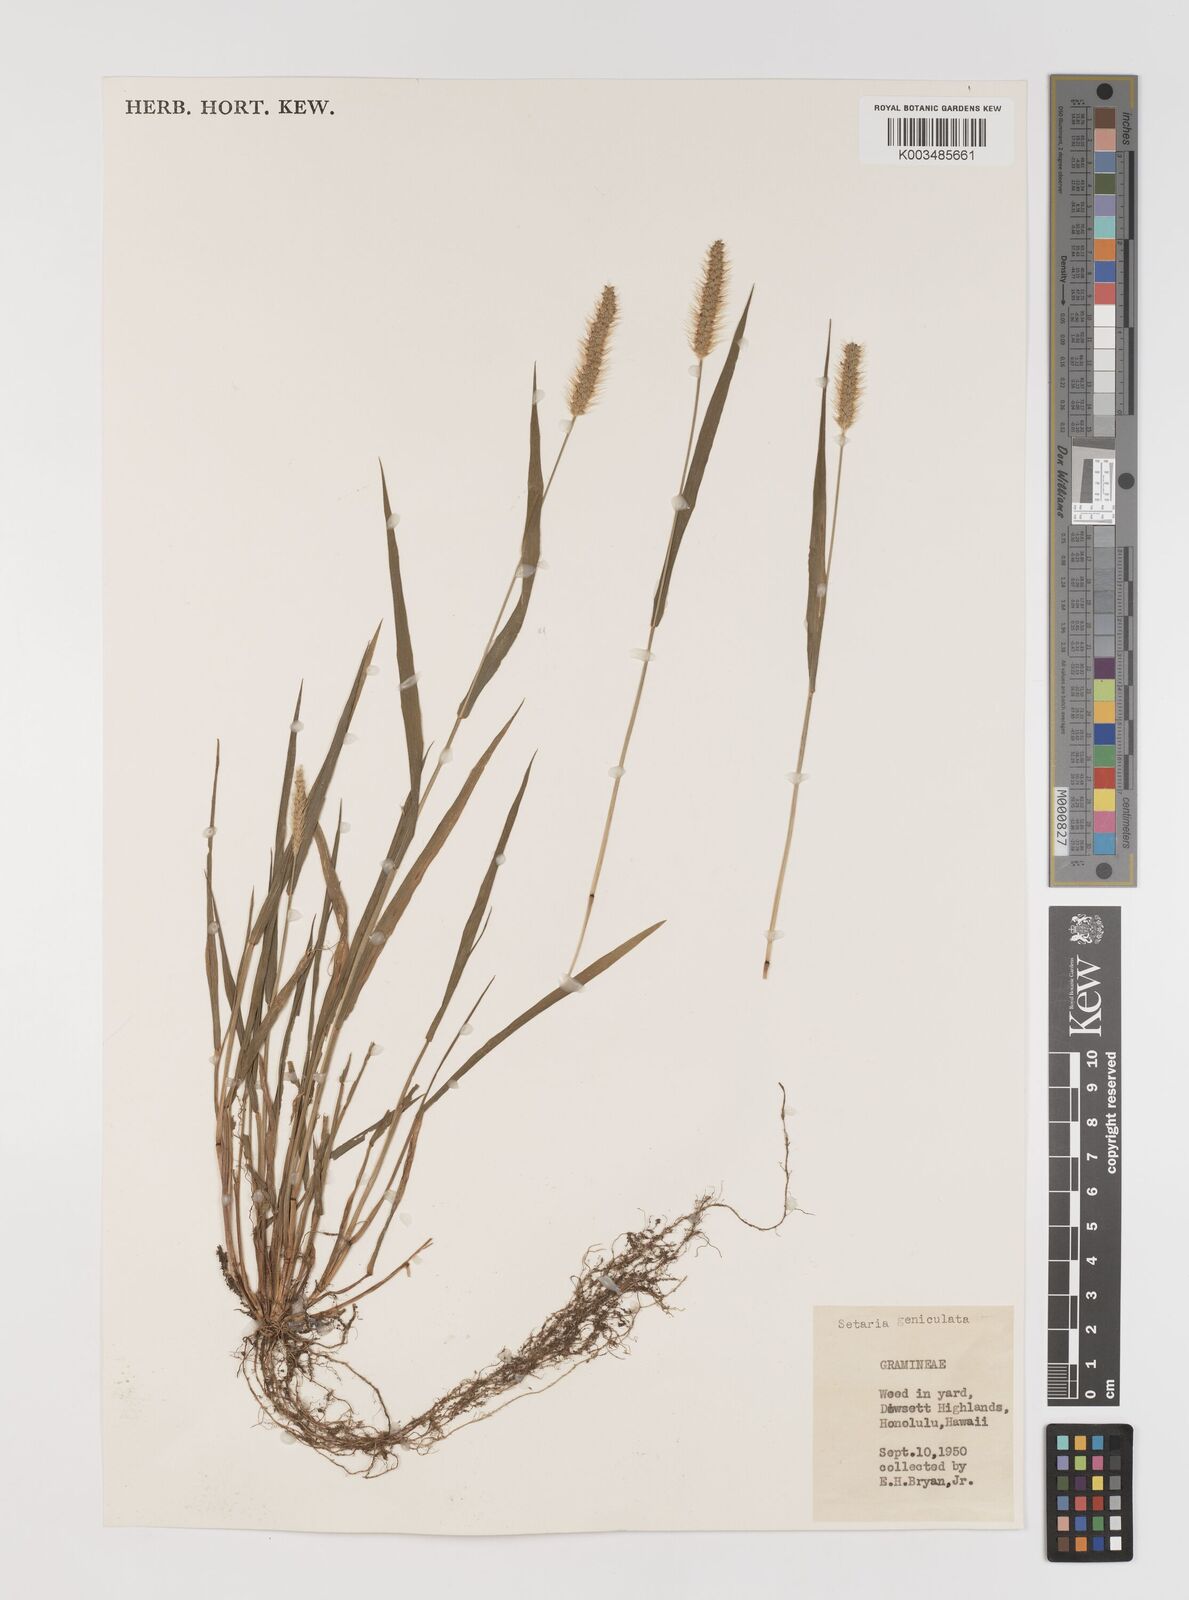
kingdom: Plantae
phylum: Tracheophyta
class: Liliopsida
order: Poales
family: Poaceae
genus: Setaria
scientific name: Setaria parviflora
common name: Knotroot bristle-grass
